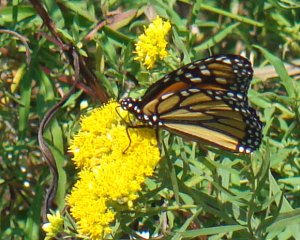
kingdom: Animalia
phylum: Arthropoda
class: Insecta
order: Lepidoptera
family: Nymphalidae
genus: Danaus
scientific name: Danaus plexippus
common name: Monarch
